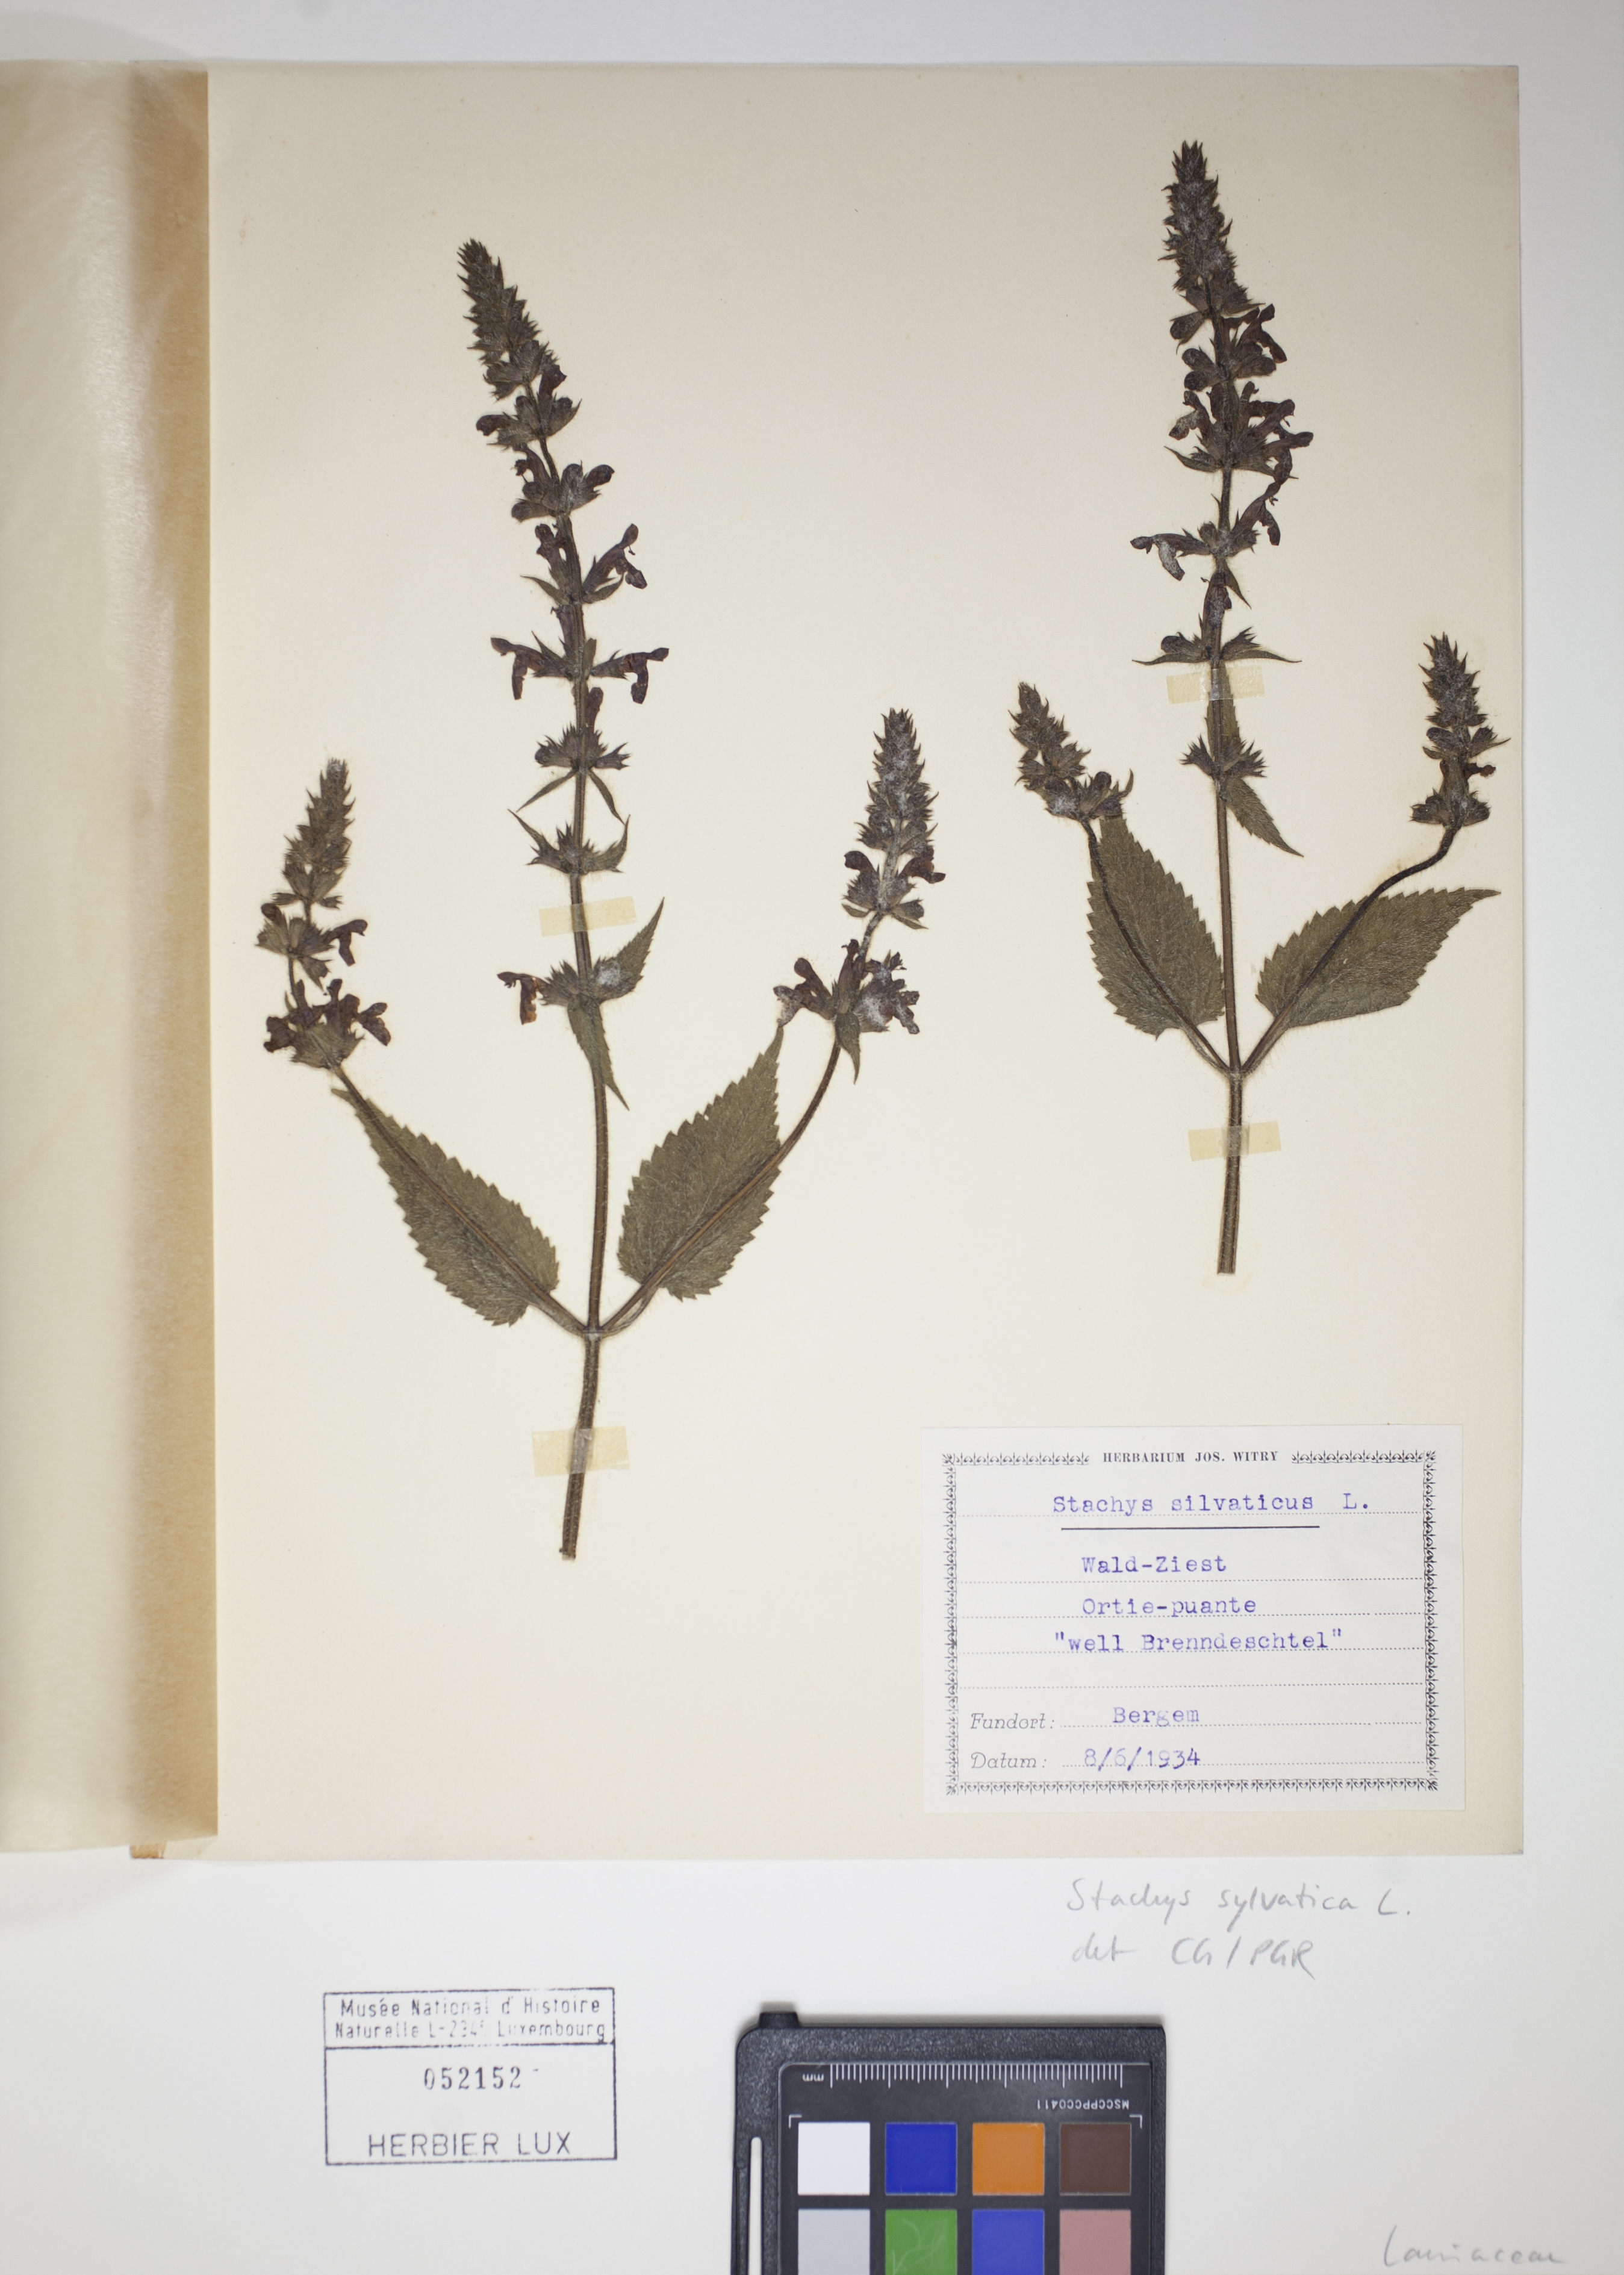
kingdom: Plantae
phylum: Tracheophyta
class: Magnoliopsida
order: Lamiales
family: Lamiaceae
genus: Stachys
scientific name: Stachys sylvatica
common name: Hedge woundwort
